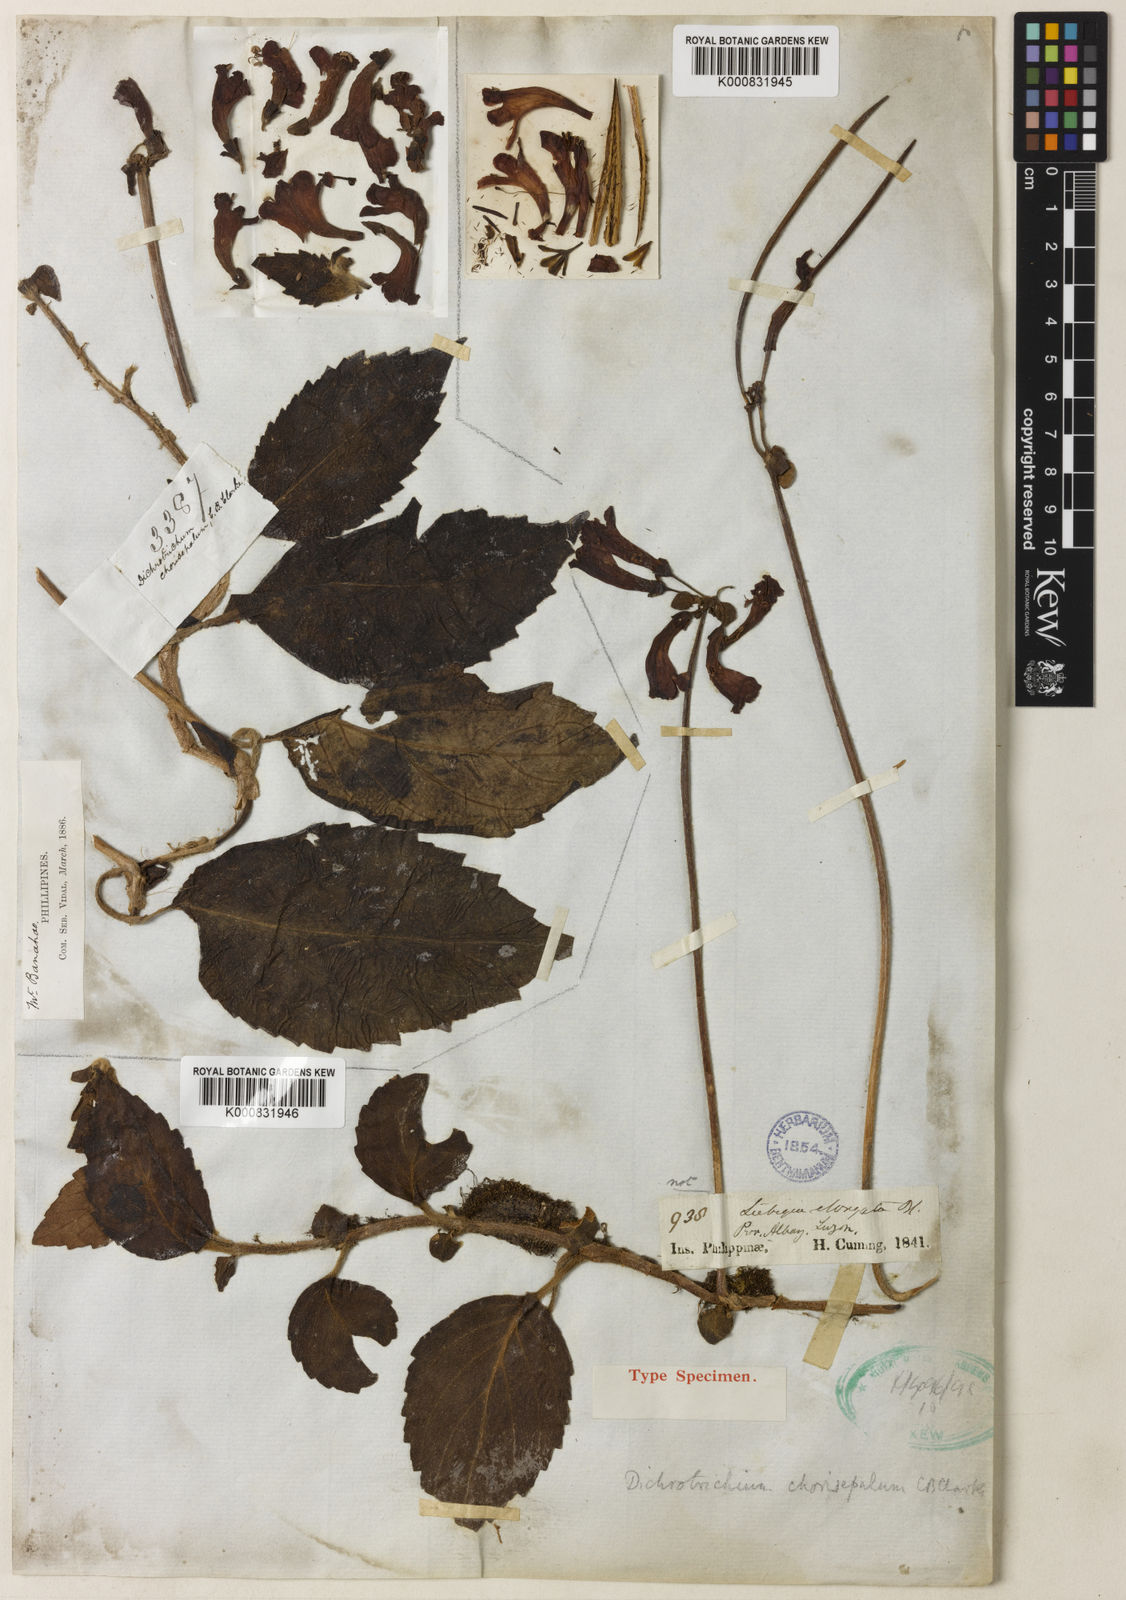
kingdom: Plantae
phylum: Tracheophyta
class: Magnoliopsida
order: Lamiales
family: Gesneriaceae
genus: Agalmyla
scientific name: Agalmyla chorisepala
